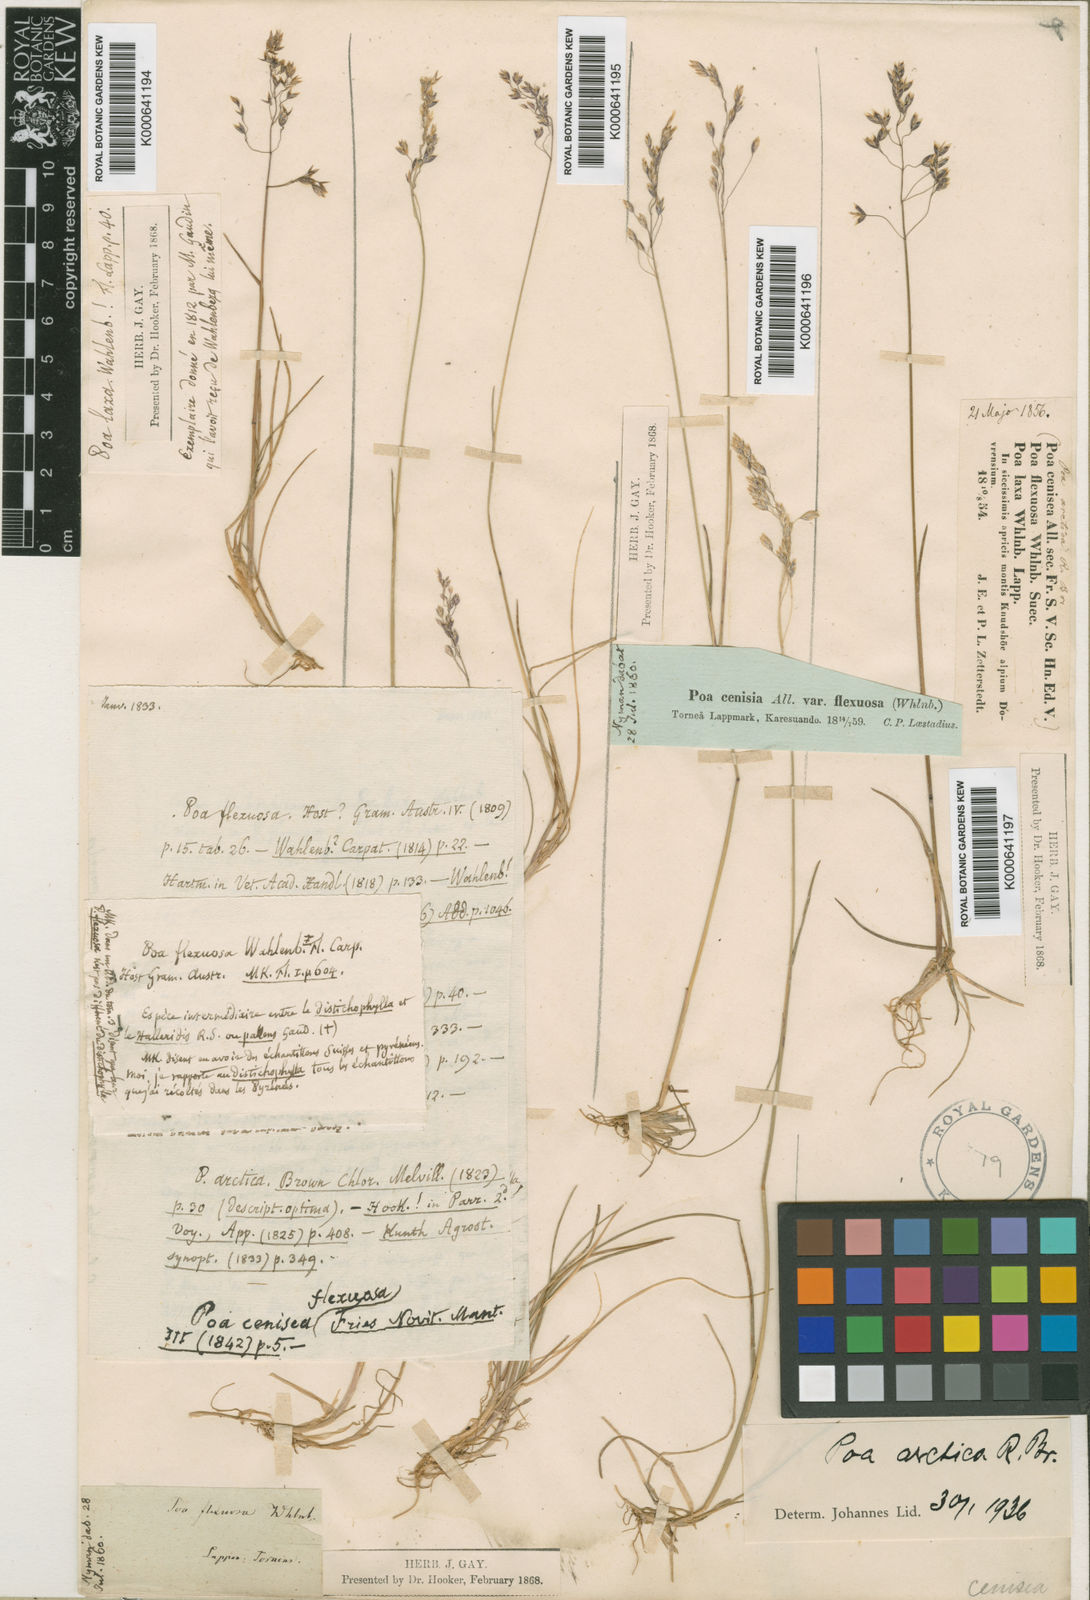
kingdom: Plantae
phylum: Tracheophyta
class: Liliopsida
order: Poales
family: Poaceae
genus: Poa
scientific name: Poa arctica
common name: Arctic bluegrass
